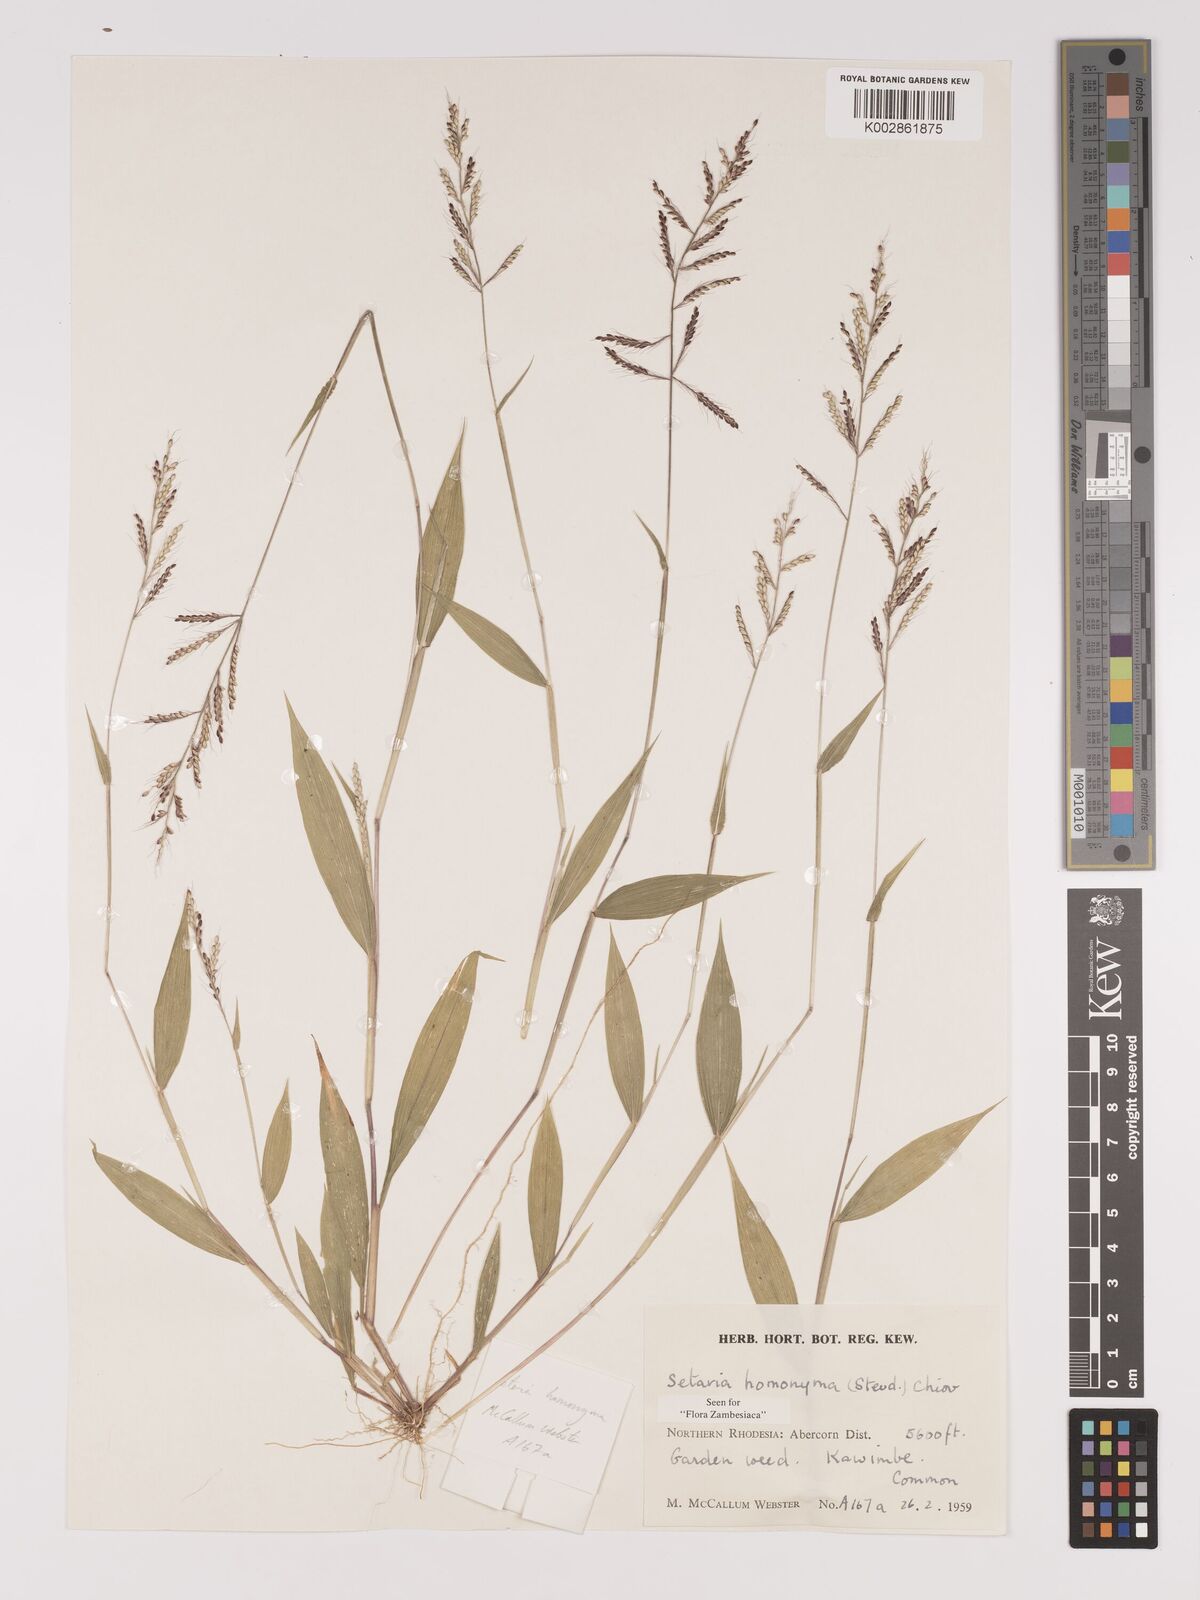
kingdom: Plantae
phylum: Tracheophyta
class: Liliopsida
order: Poales
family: Poaceae
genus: Setaria
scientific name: Setaria homonyma
